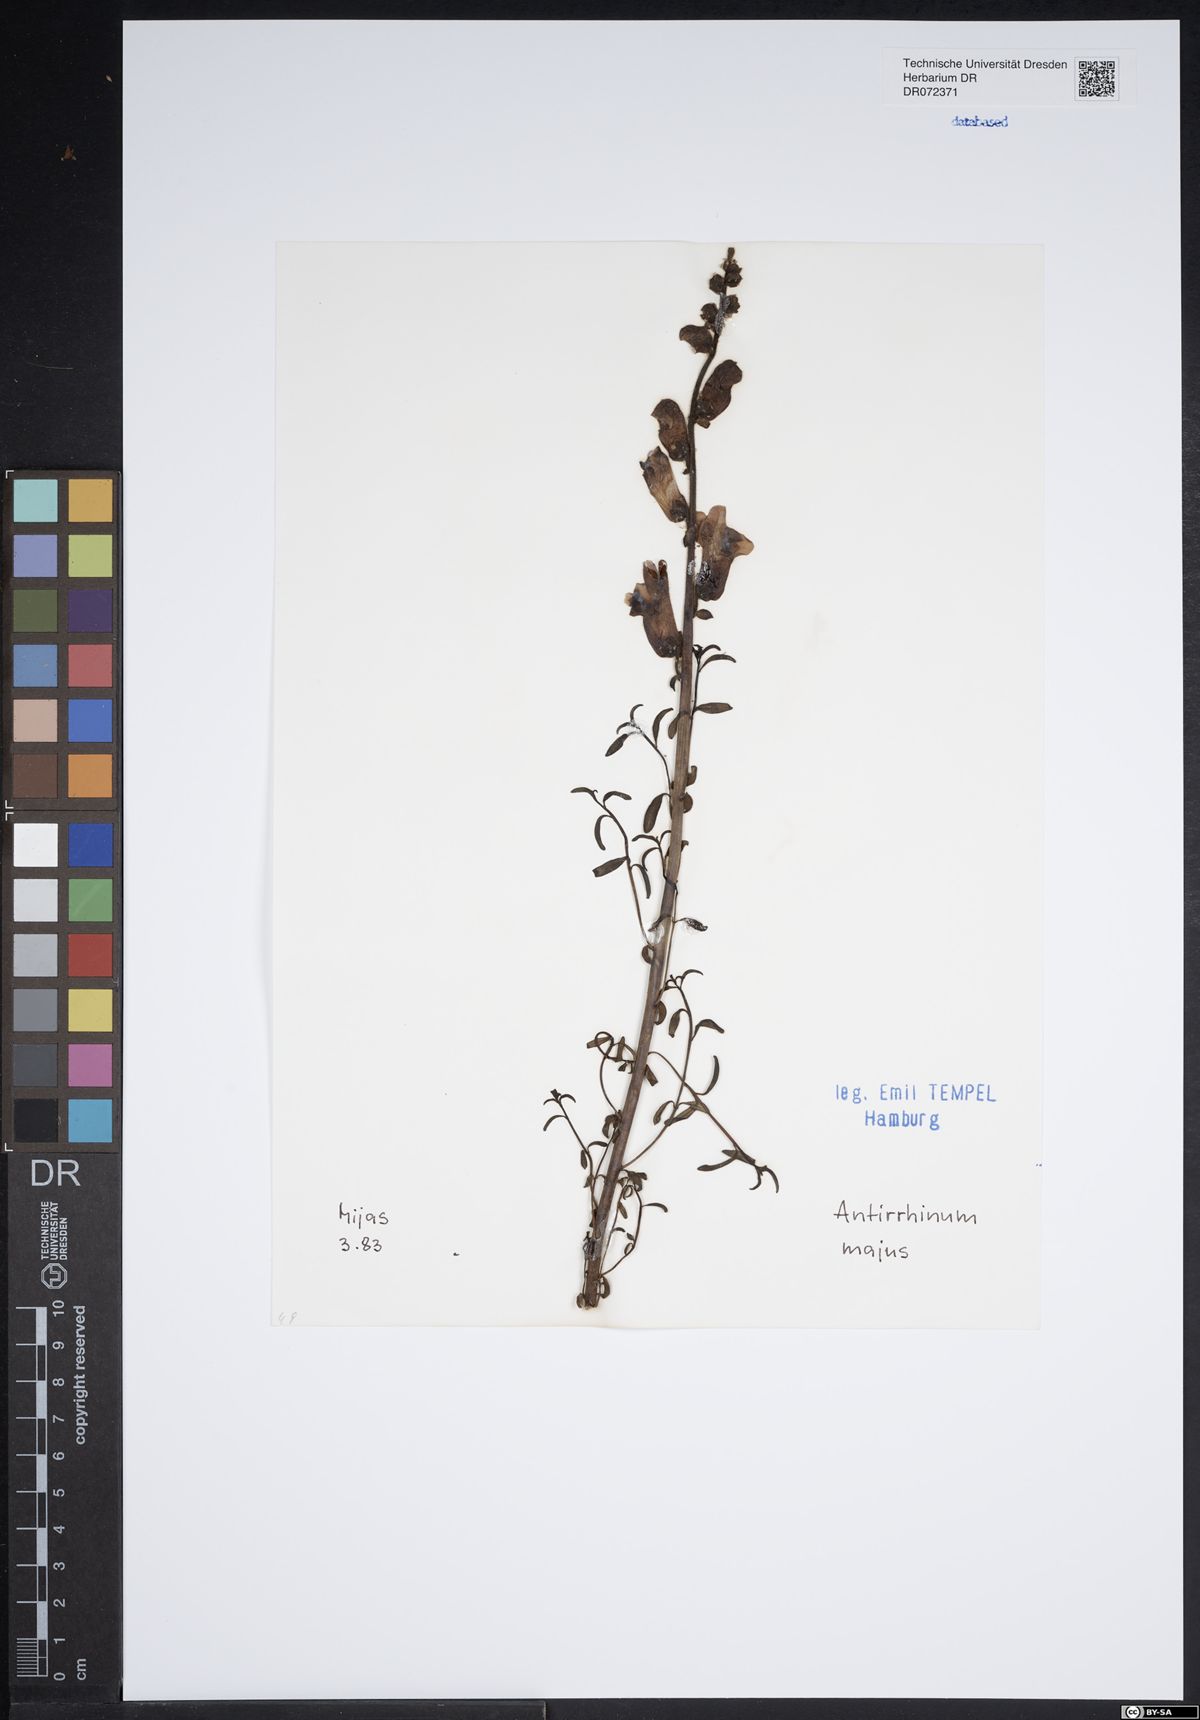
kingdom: Plantae
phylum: Tracheophyta
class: Magnoliopsida
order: Lamiales
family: Plantaginaceae
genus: Antirrhinum
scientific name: Antirrhinum majus
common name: Snapdragon
